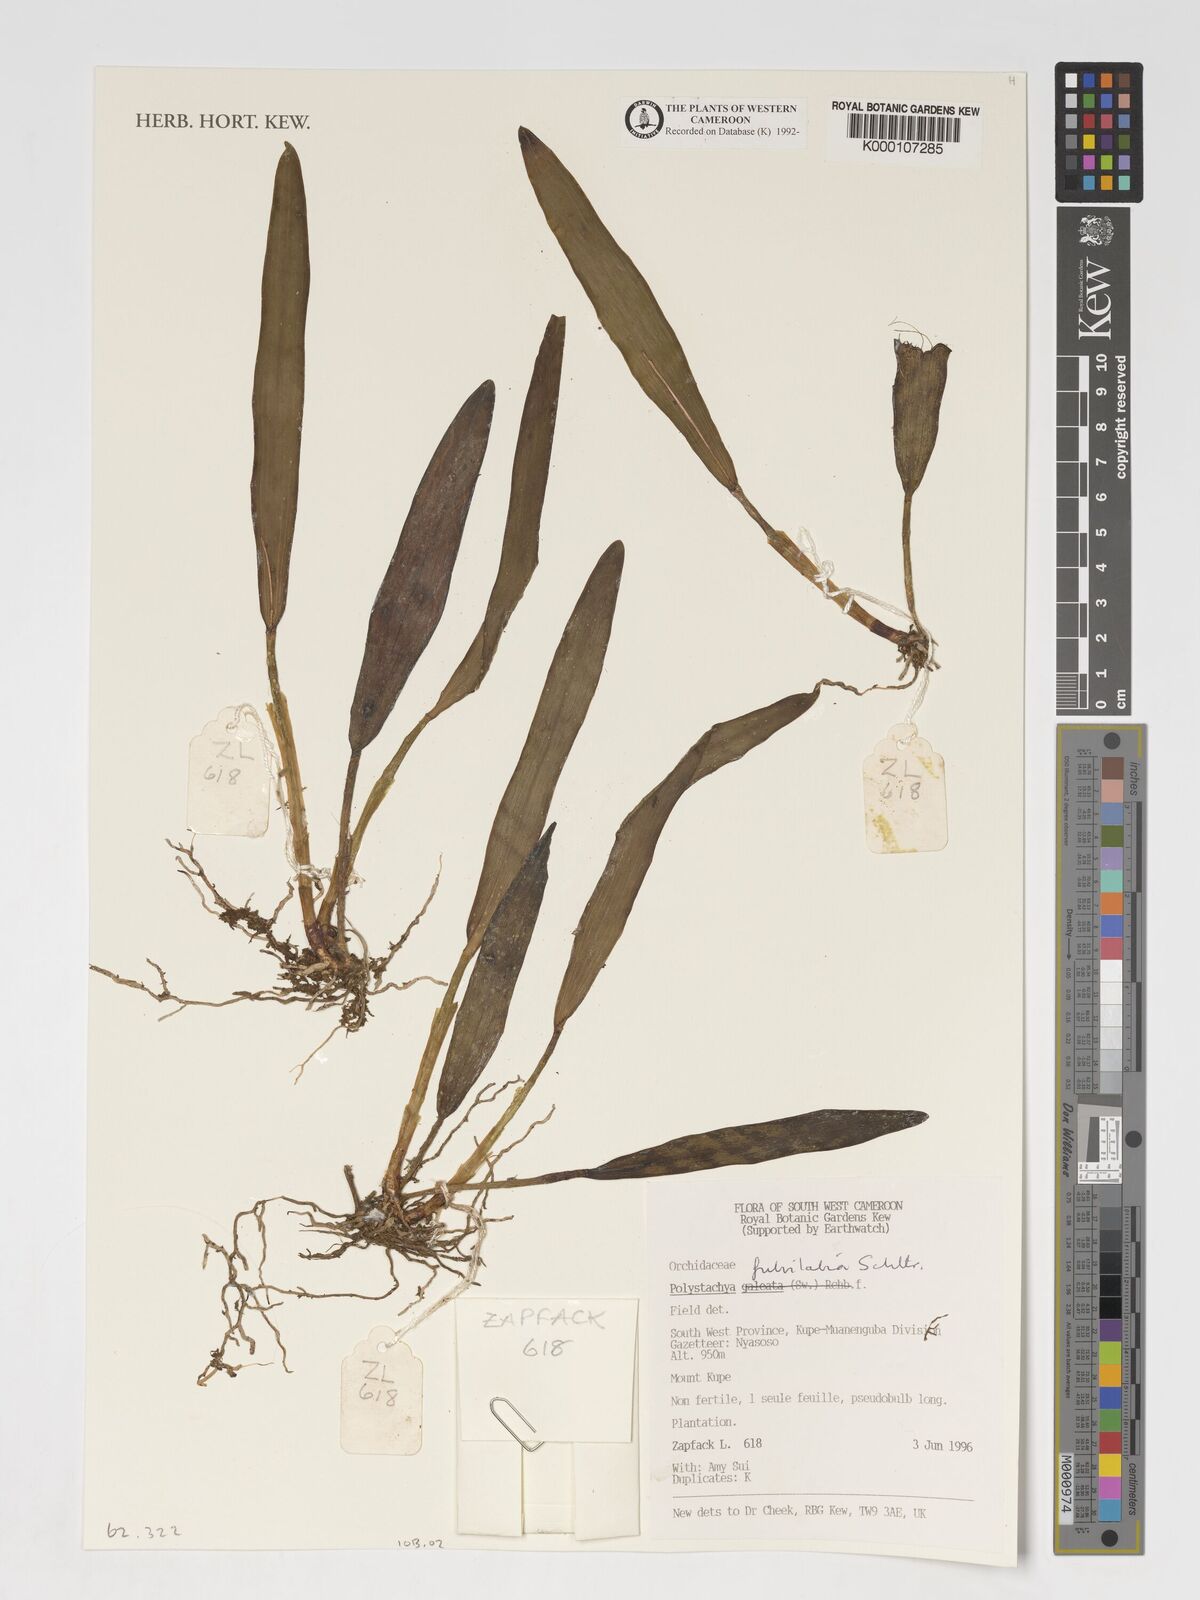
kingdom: Plantae
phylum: Tracheophyta
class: Liliopsida
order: Asparagales
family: Orchidaceae
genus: Polystachya
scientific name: Polystachya fulvilabia
